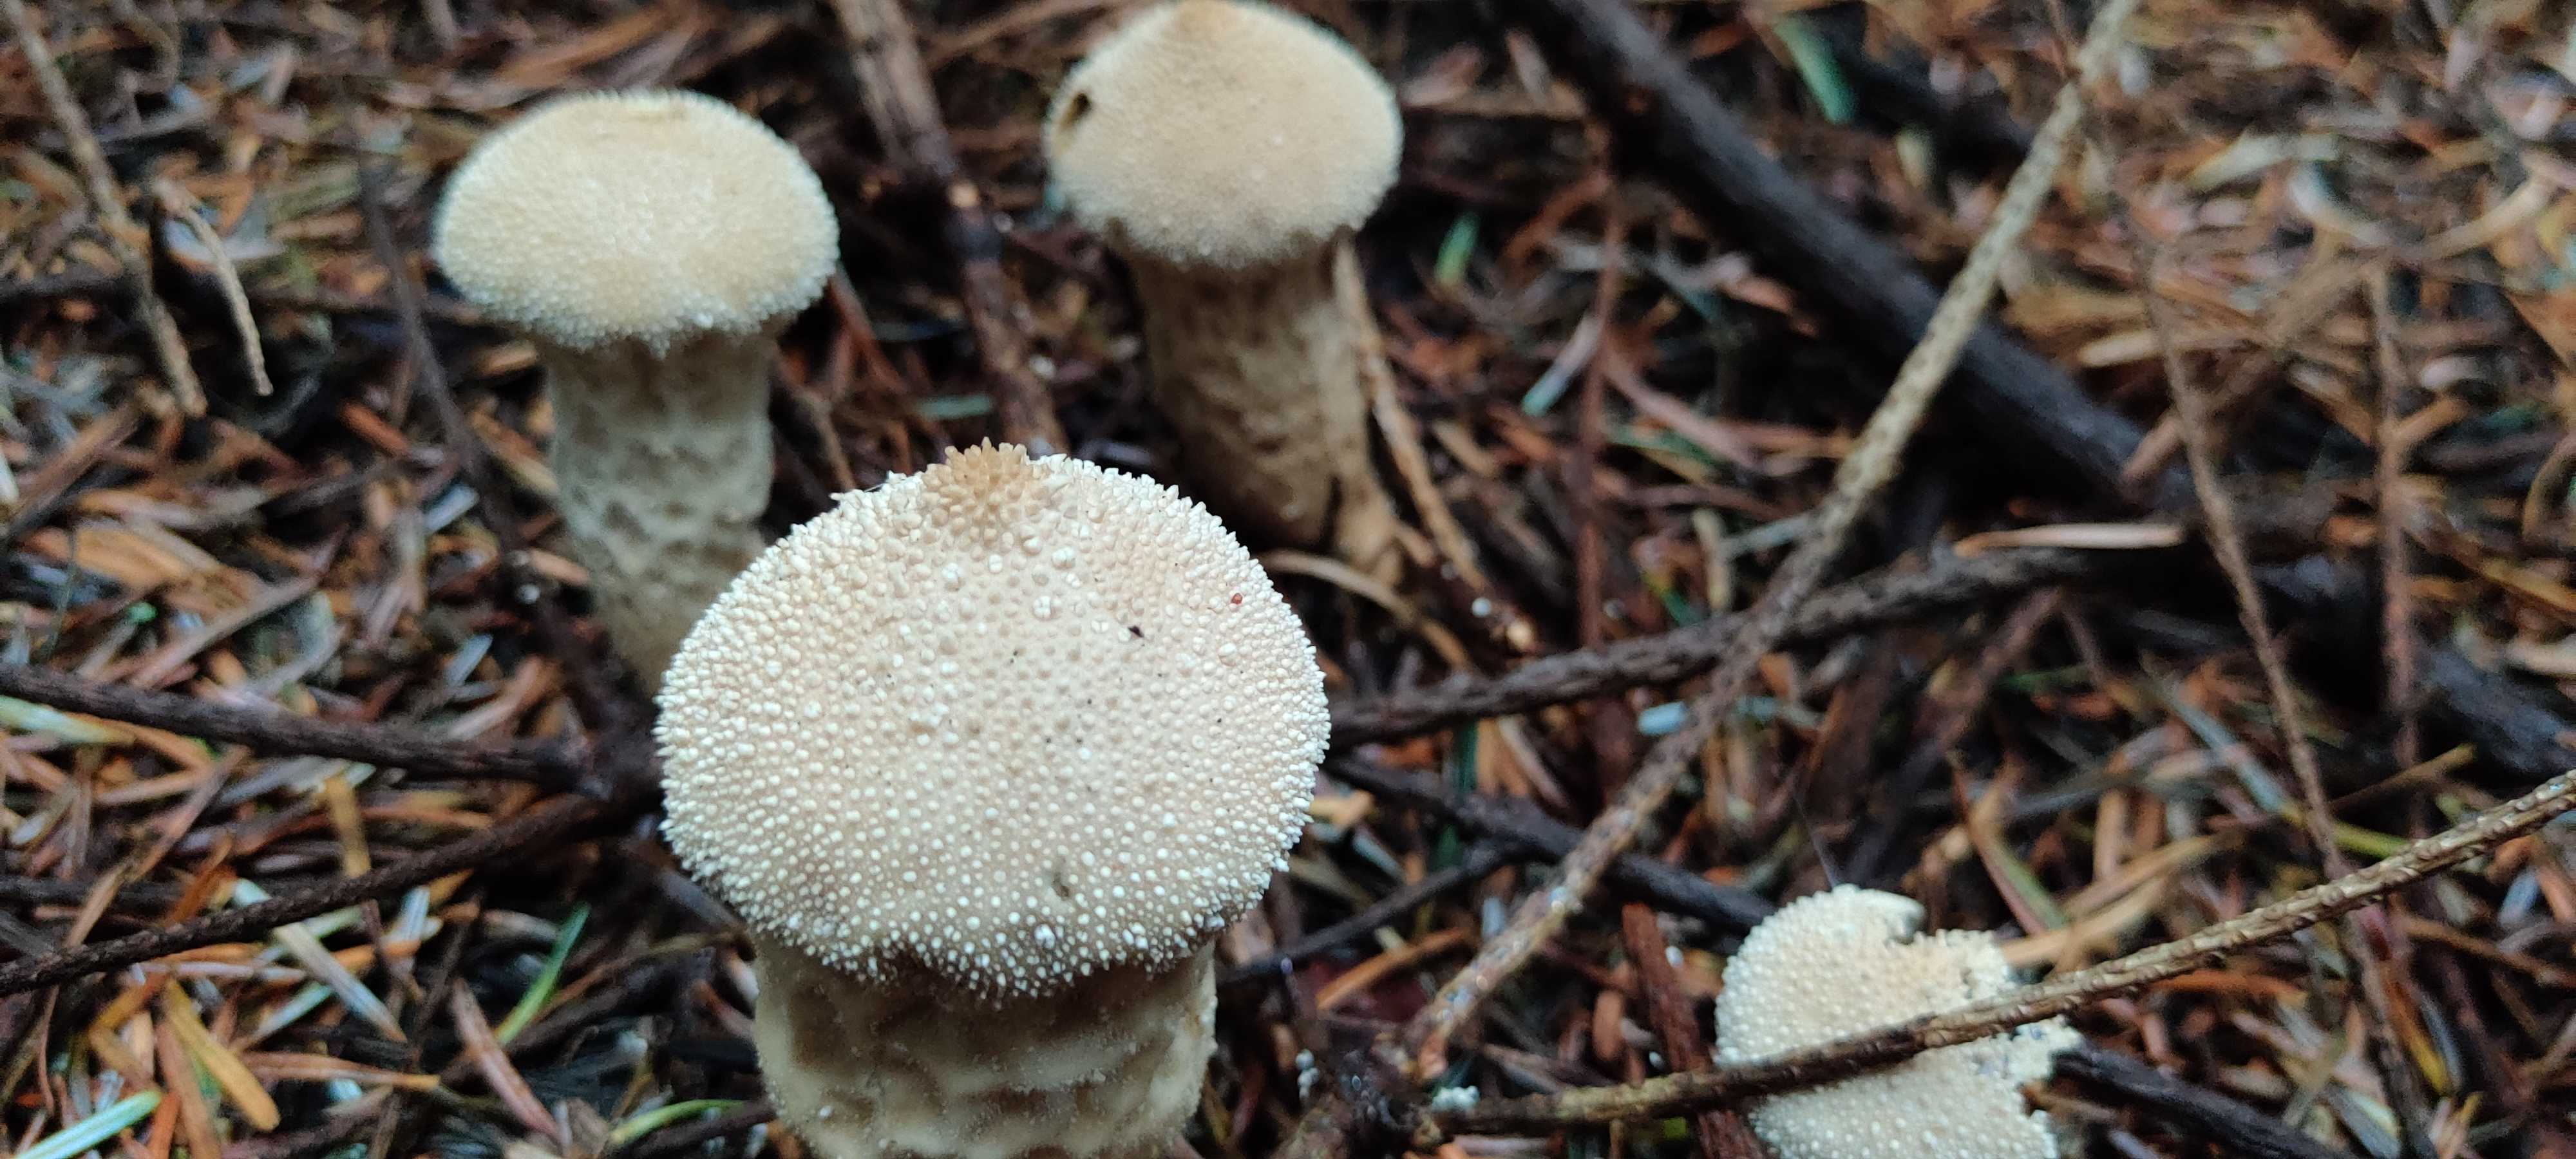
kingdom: Fungi
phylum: Basidiomycota
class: Agaricomycetes
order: Agaricales
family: Lycoperdaceae
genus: Lycoperdon
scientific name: Lycoperdon perlatum
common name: krystal-støvbold
